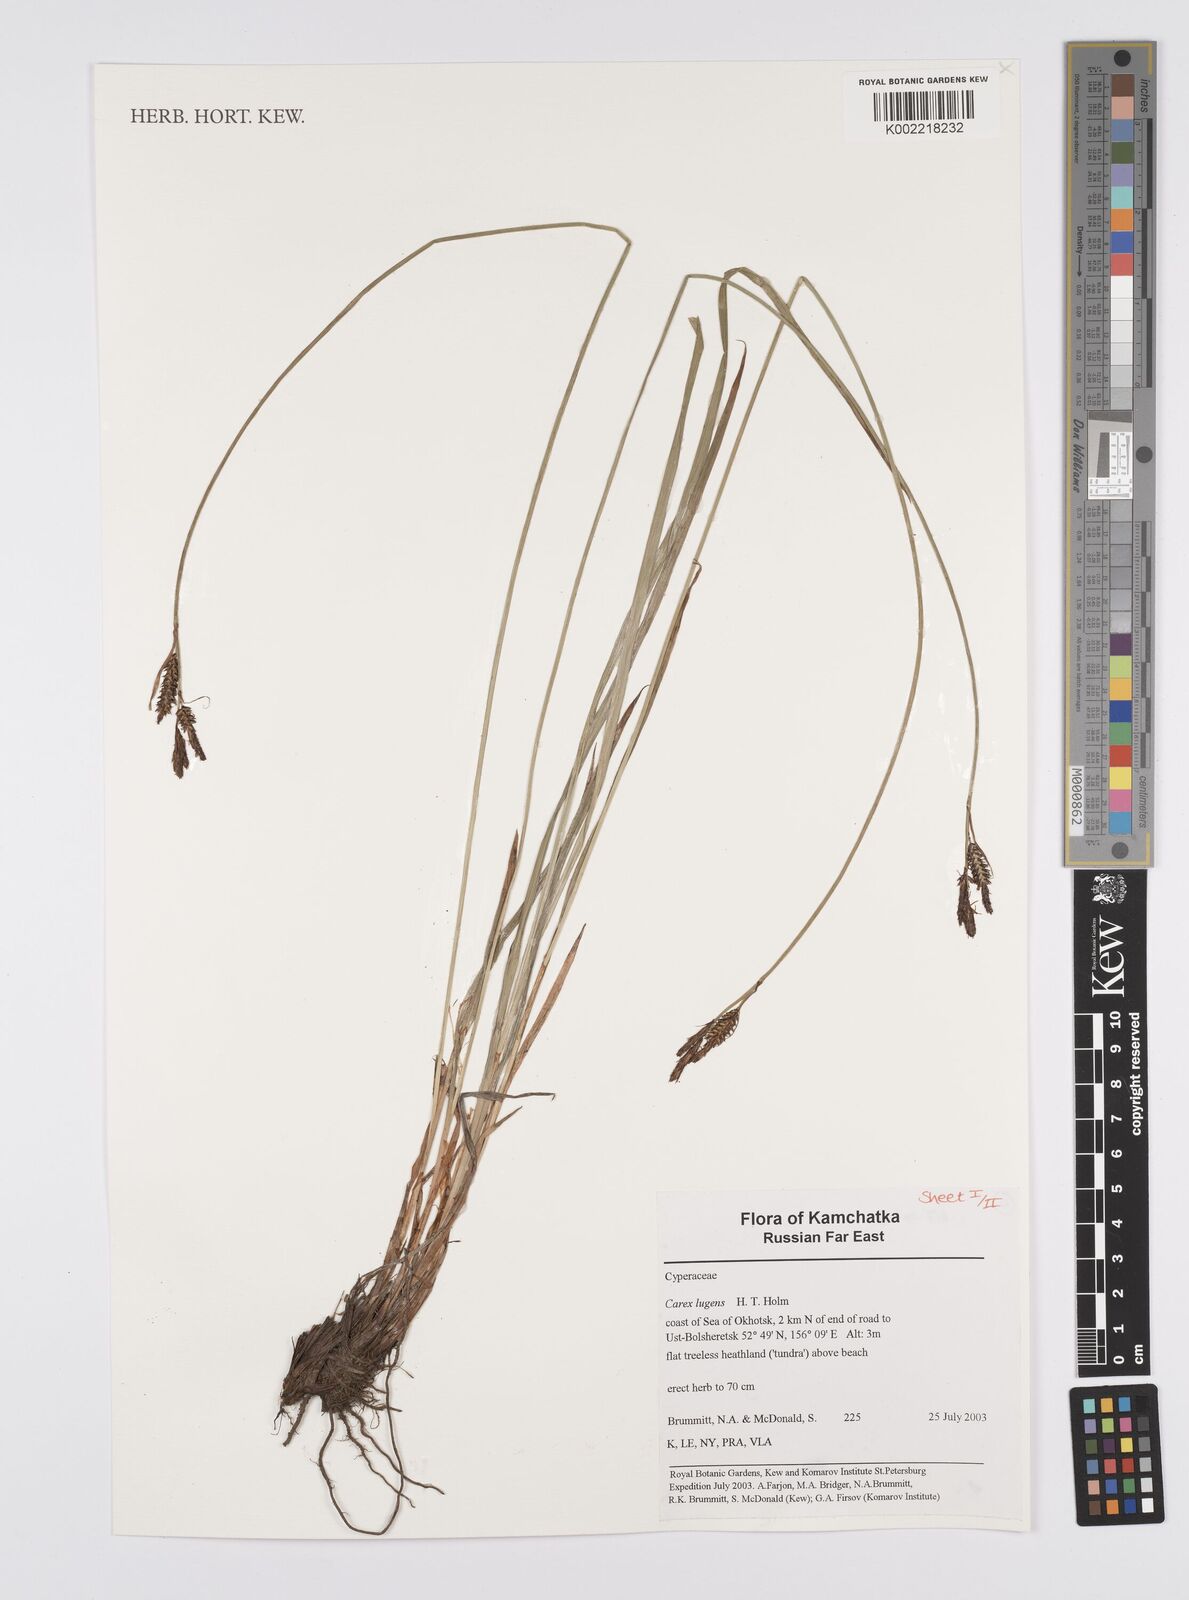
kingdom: Plantae
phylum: Tracheophyta
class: Liliopsida
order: Poales
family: Cyperaceae
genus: Carex
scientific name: Carex bigelowii
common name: Stiff sedge
